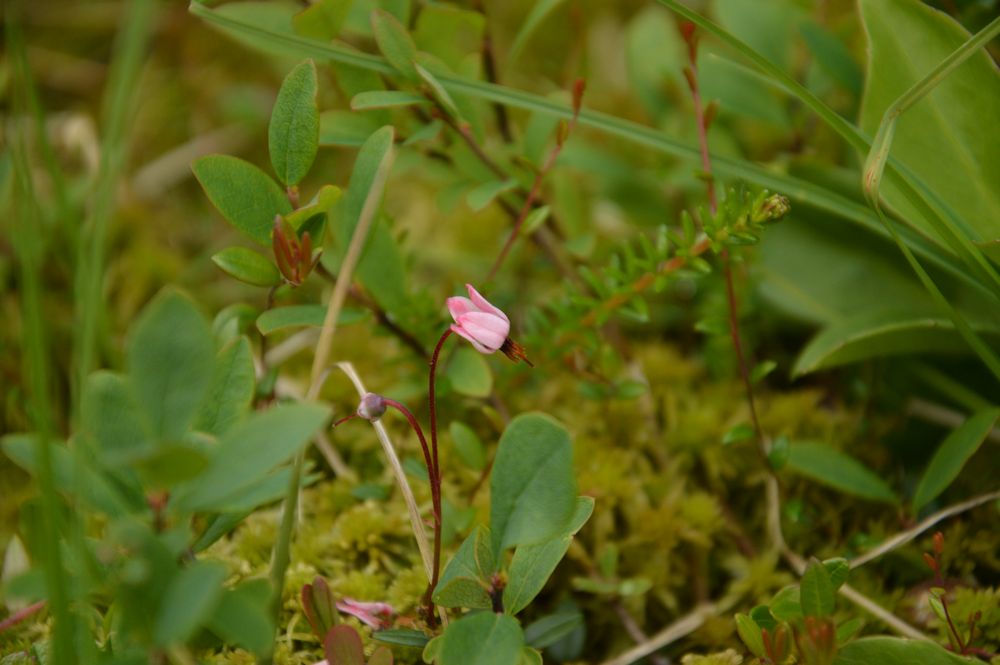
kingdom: Plantae
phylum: Tracheophyta
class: Magnoliopsida
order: Ericales
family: Ericaceae
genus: Oxycoccus
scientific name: Oxycoccus
